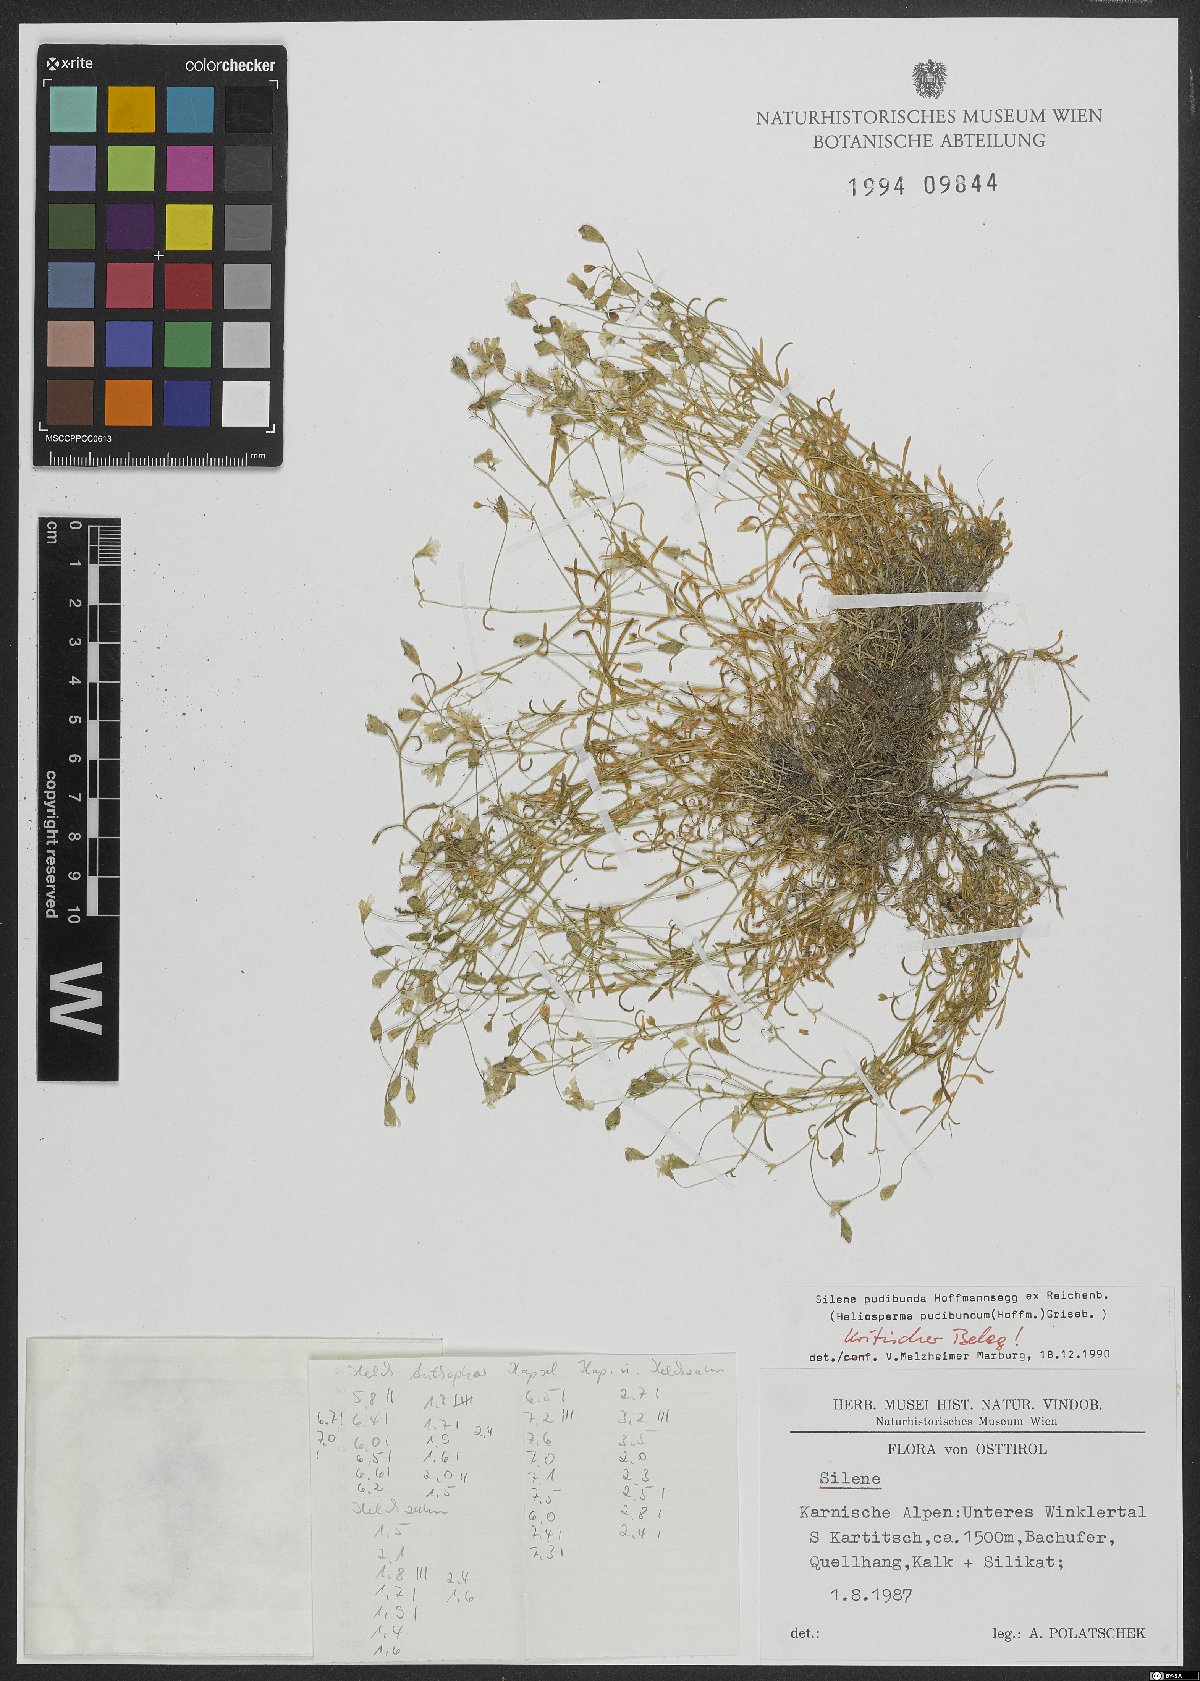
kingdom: Plantae
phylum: Tracheophyta
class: Magnoliopsida
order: Caryophyllales
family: Caryophyllaceae
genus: Heliosperma
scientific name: Heliosperma pudibundum
